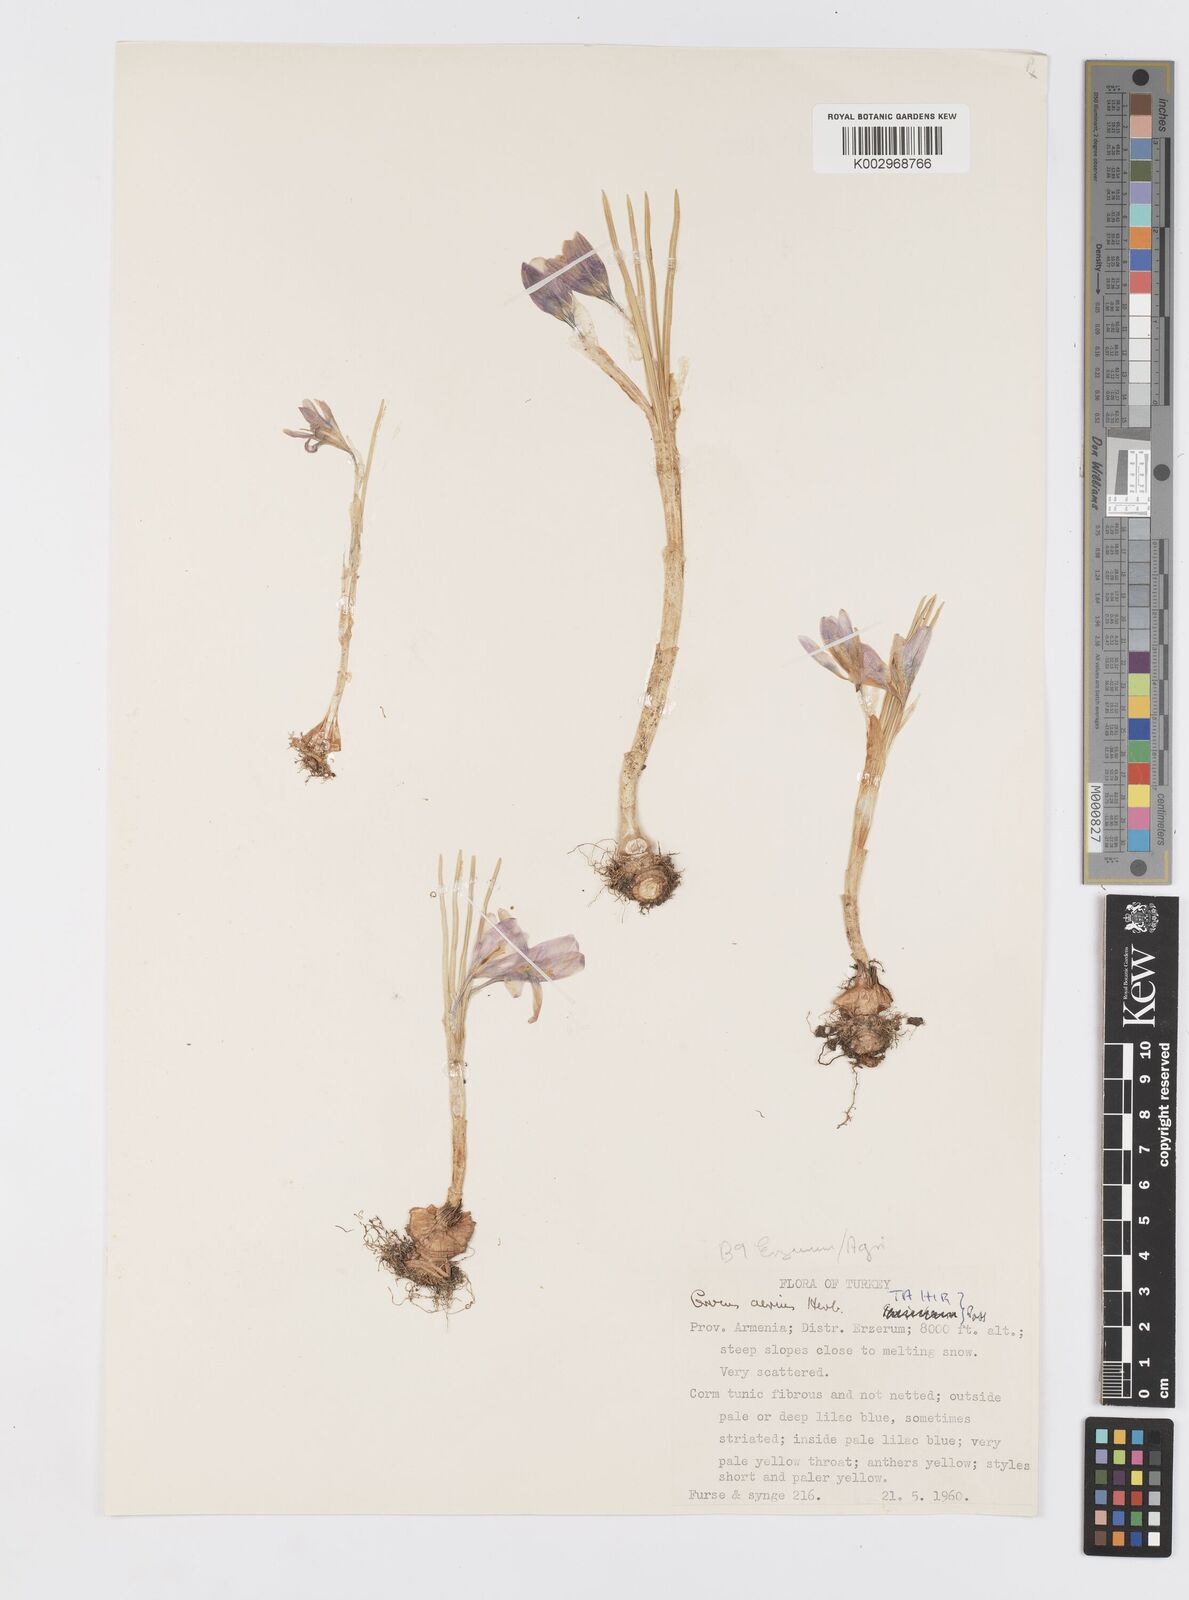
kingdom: Plantae
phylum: Tracheophyta
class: Liliopsida
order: Asparagales
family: Iridaceae
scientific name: Iridaceae
